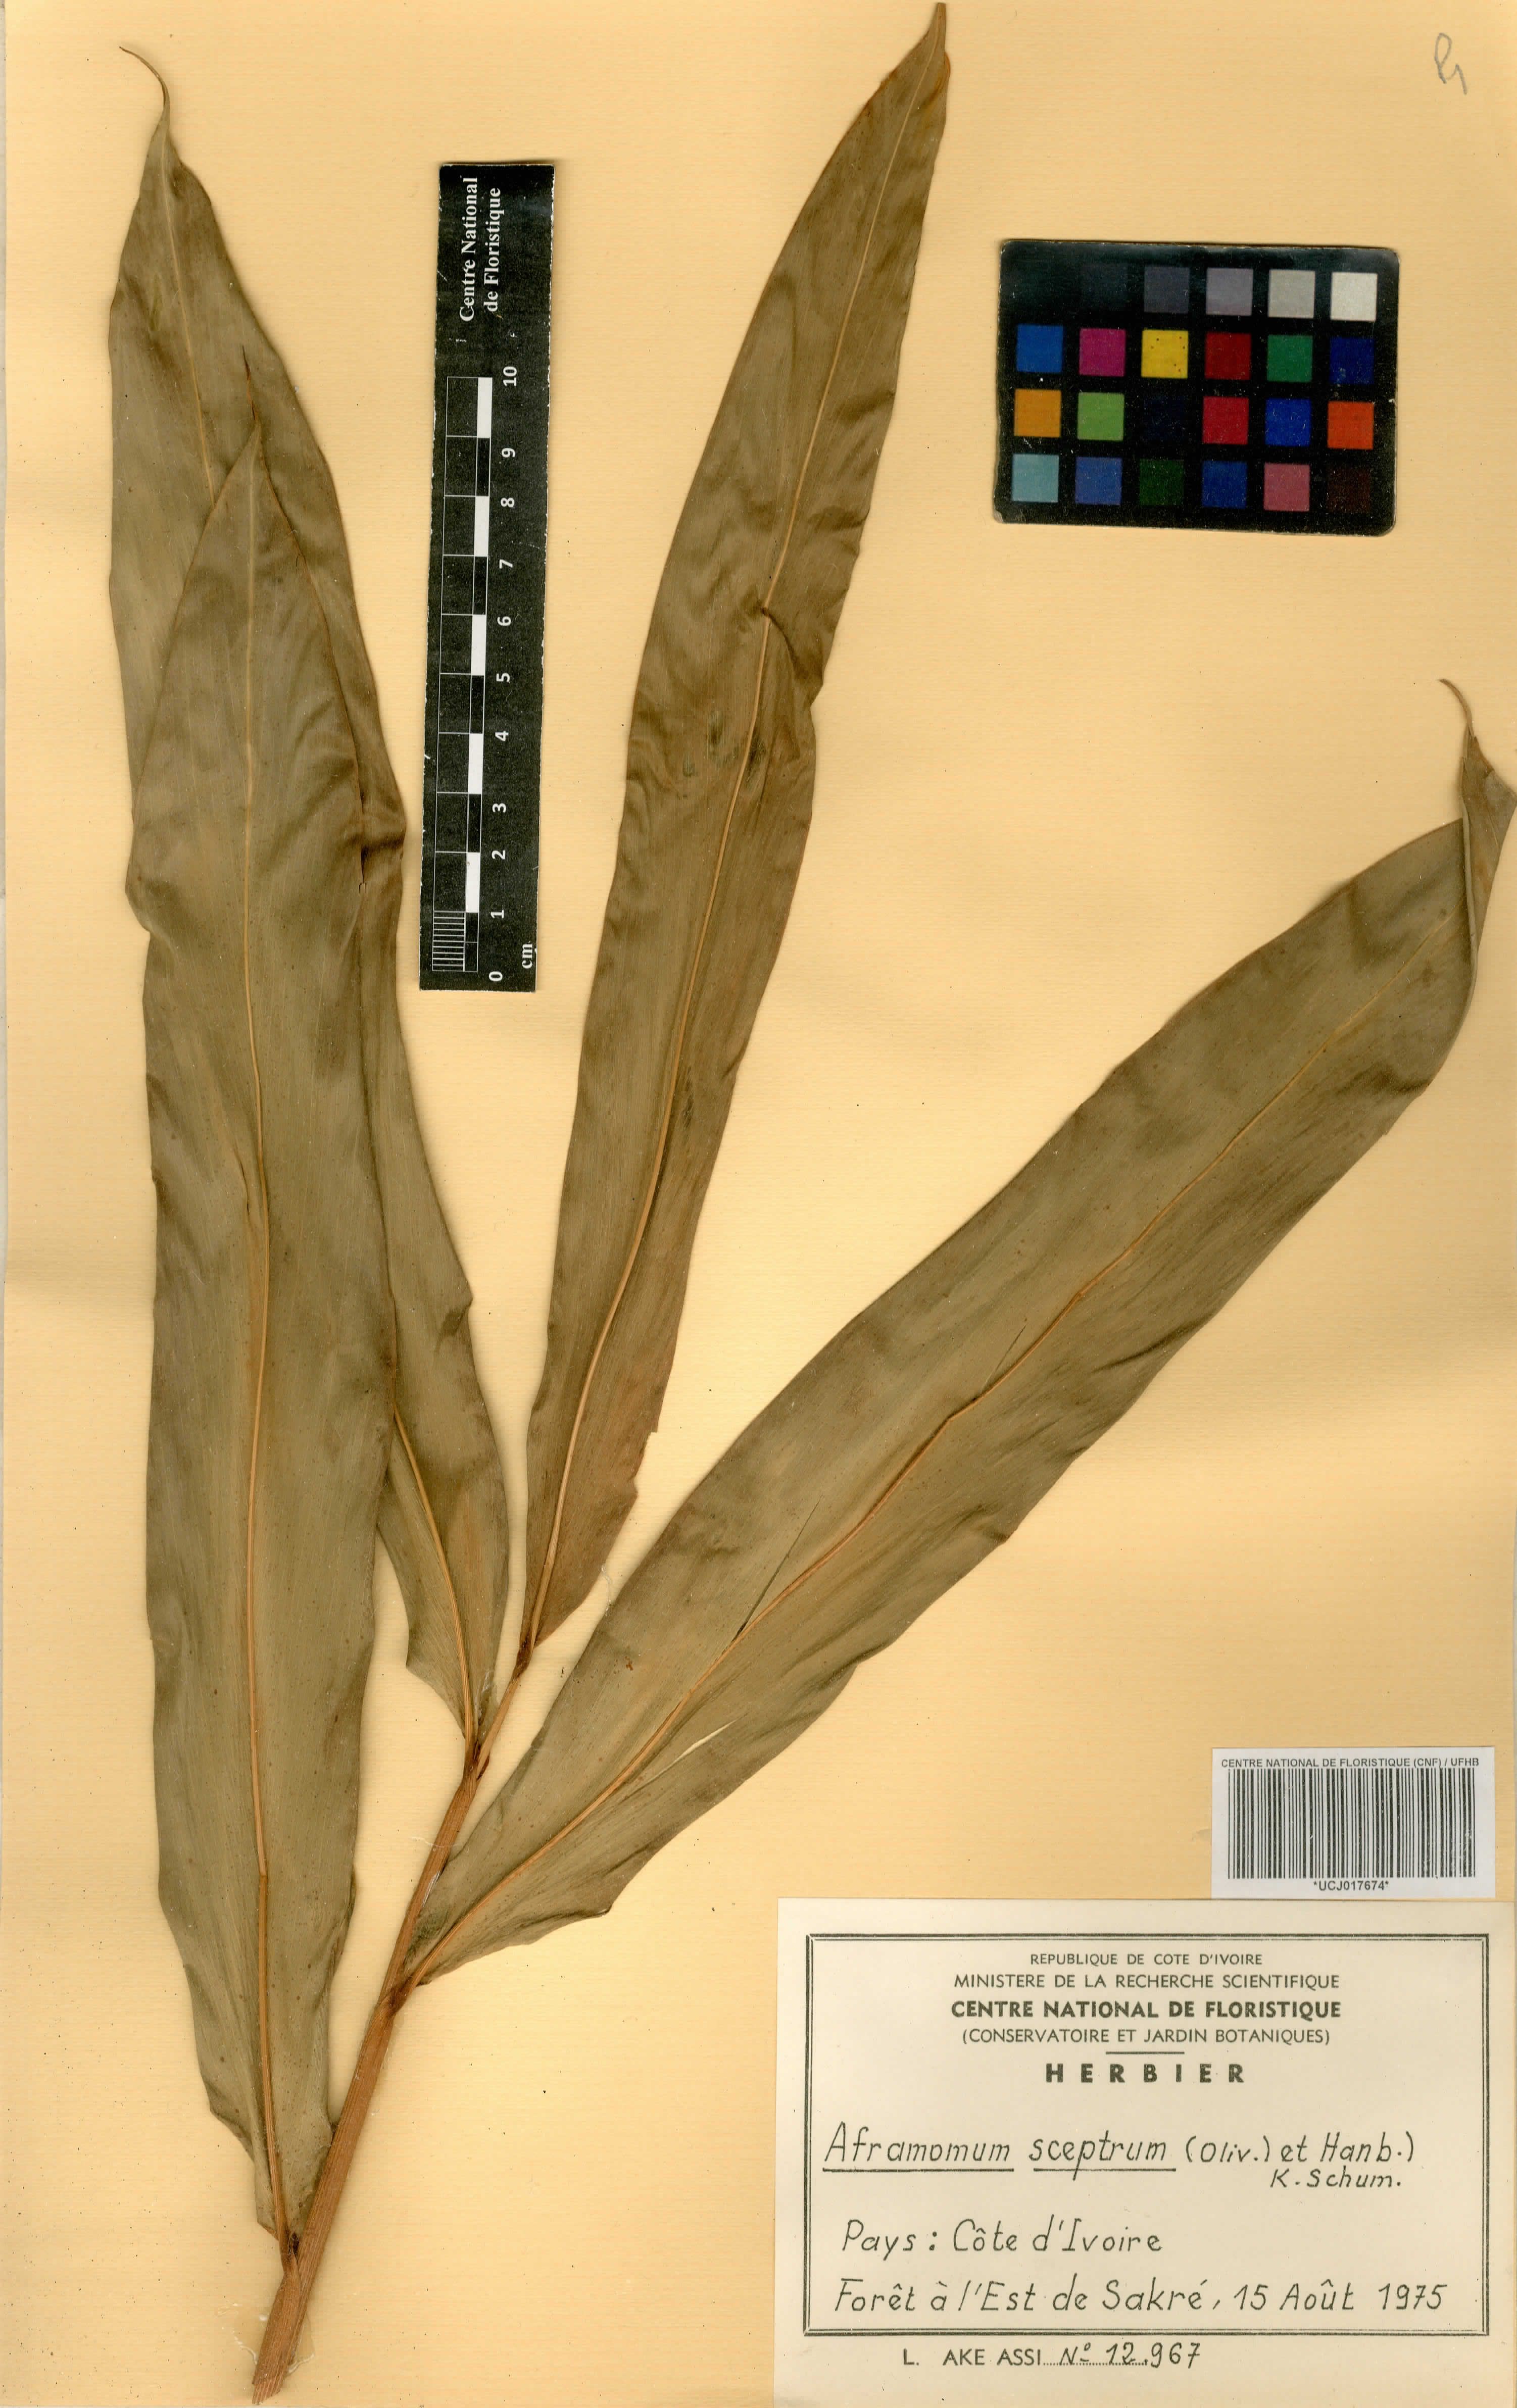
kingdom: Plantae
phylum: Tracheophyta
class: Liliopsida
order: Zingiberales
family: Zingiberaceae
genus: Aframomum
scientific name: Aframomum cereum
